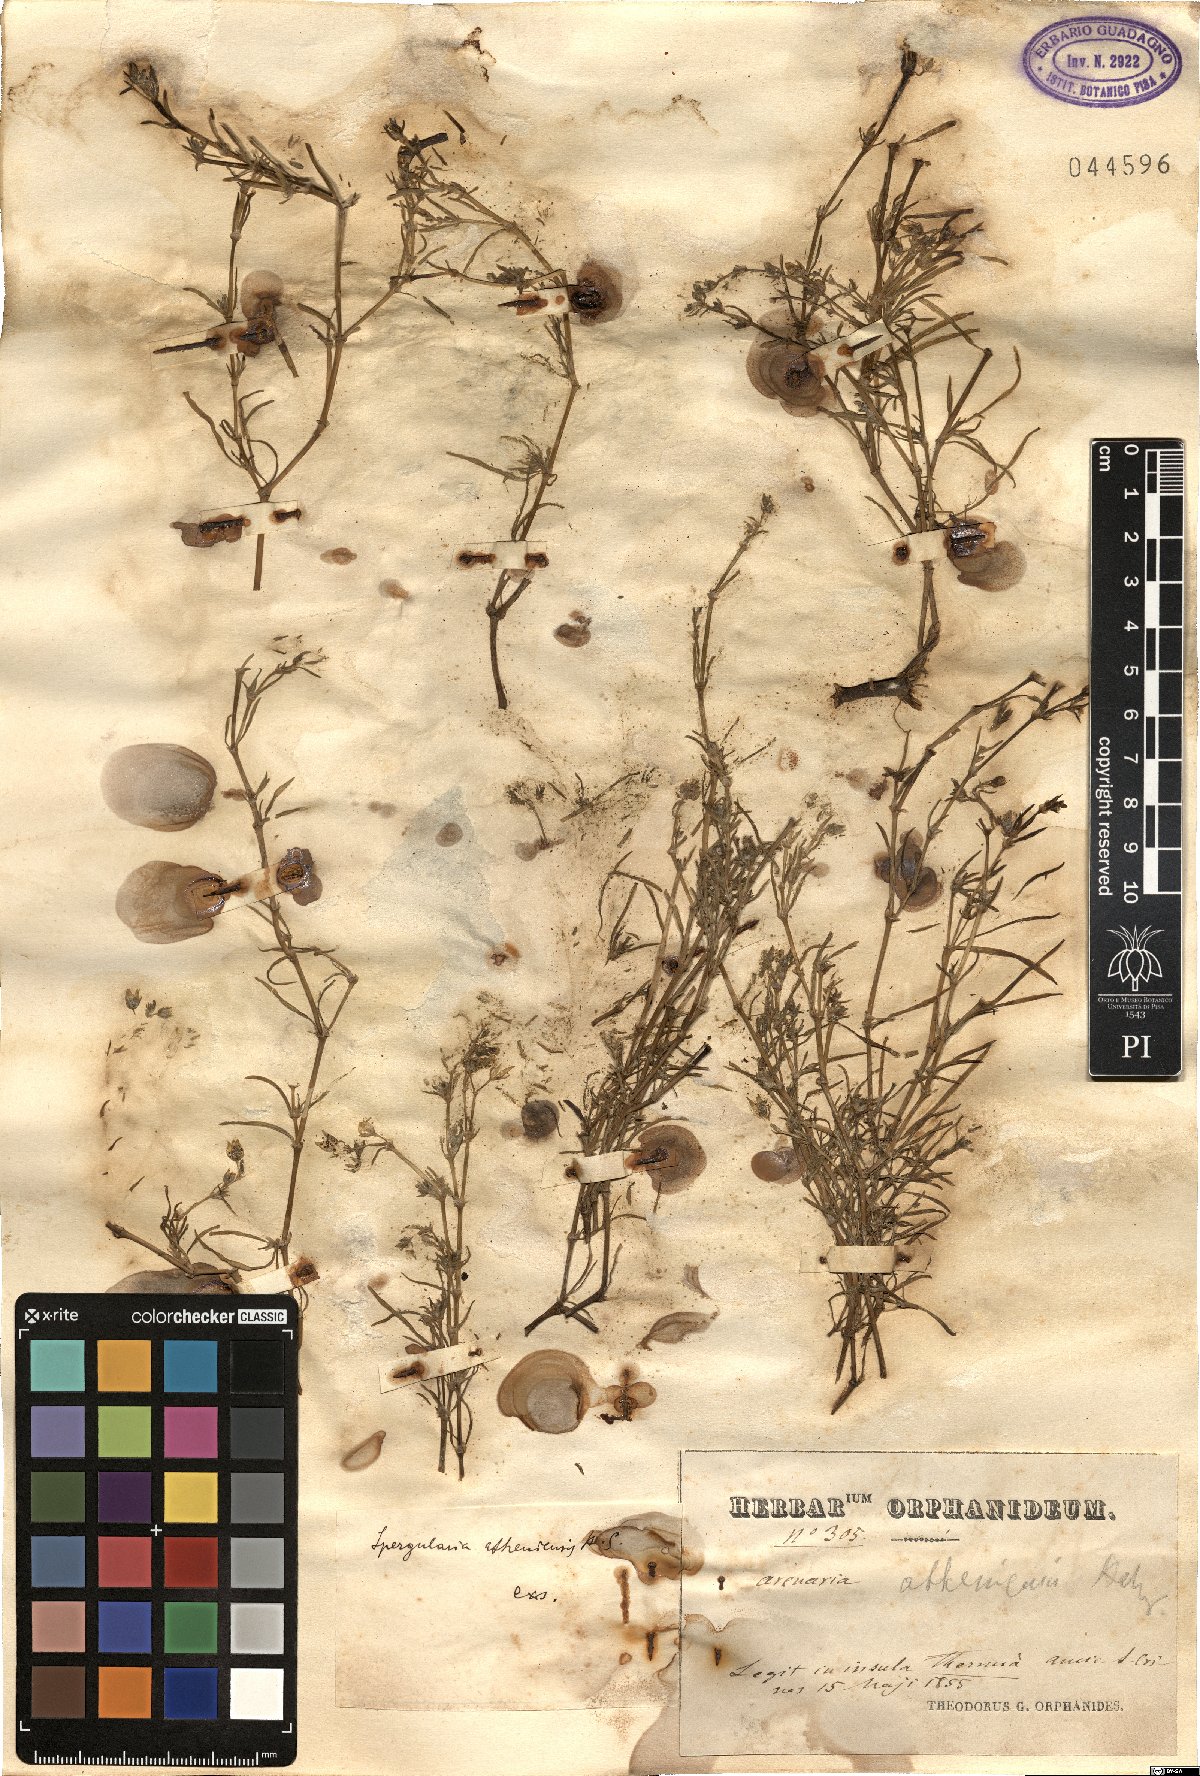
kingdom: Plantae
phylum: Tracheophyta
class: Magnoliopsida
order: Caryophyllales
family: Caryophyllaceae
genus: Spergularia
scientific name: Spergularia bocconei
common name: Greek sea-spurrey
